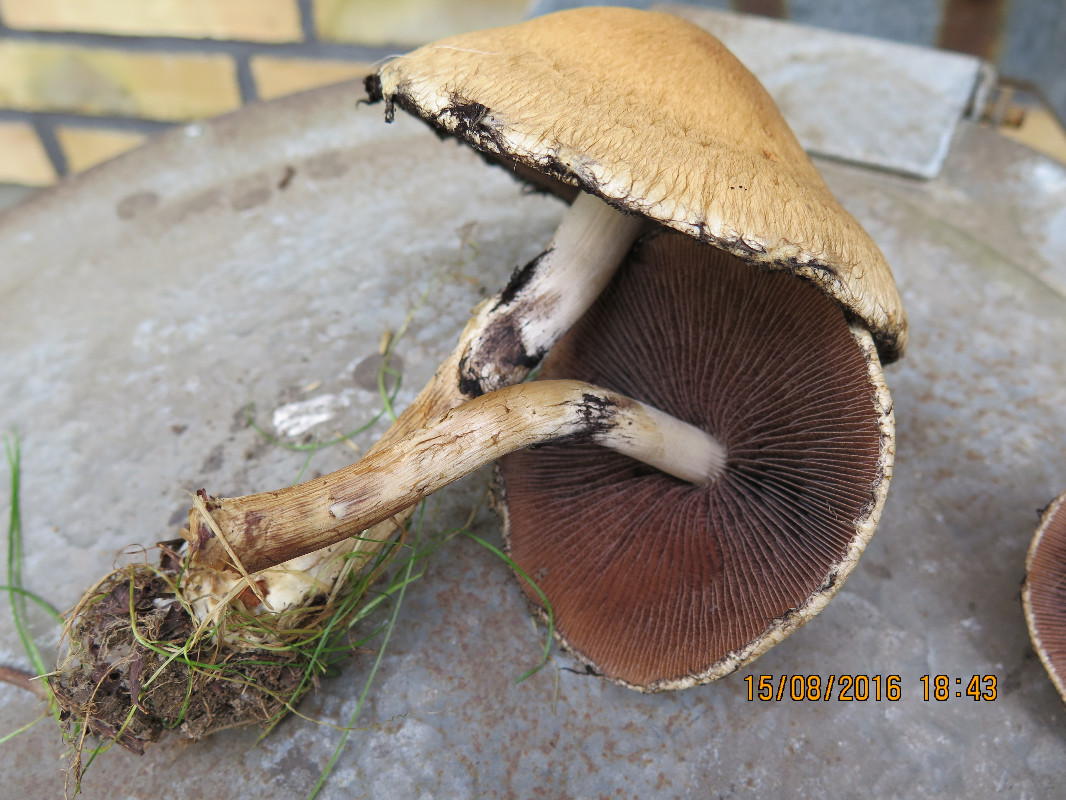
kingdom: Fungi
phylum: Basidiomycota
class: Agaricomycetes
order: Agaricales
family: Psathyrellaceae
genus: Lacrymaria
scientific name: Lacrymaria lacrymabunda
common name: grædende mørkhat
